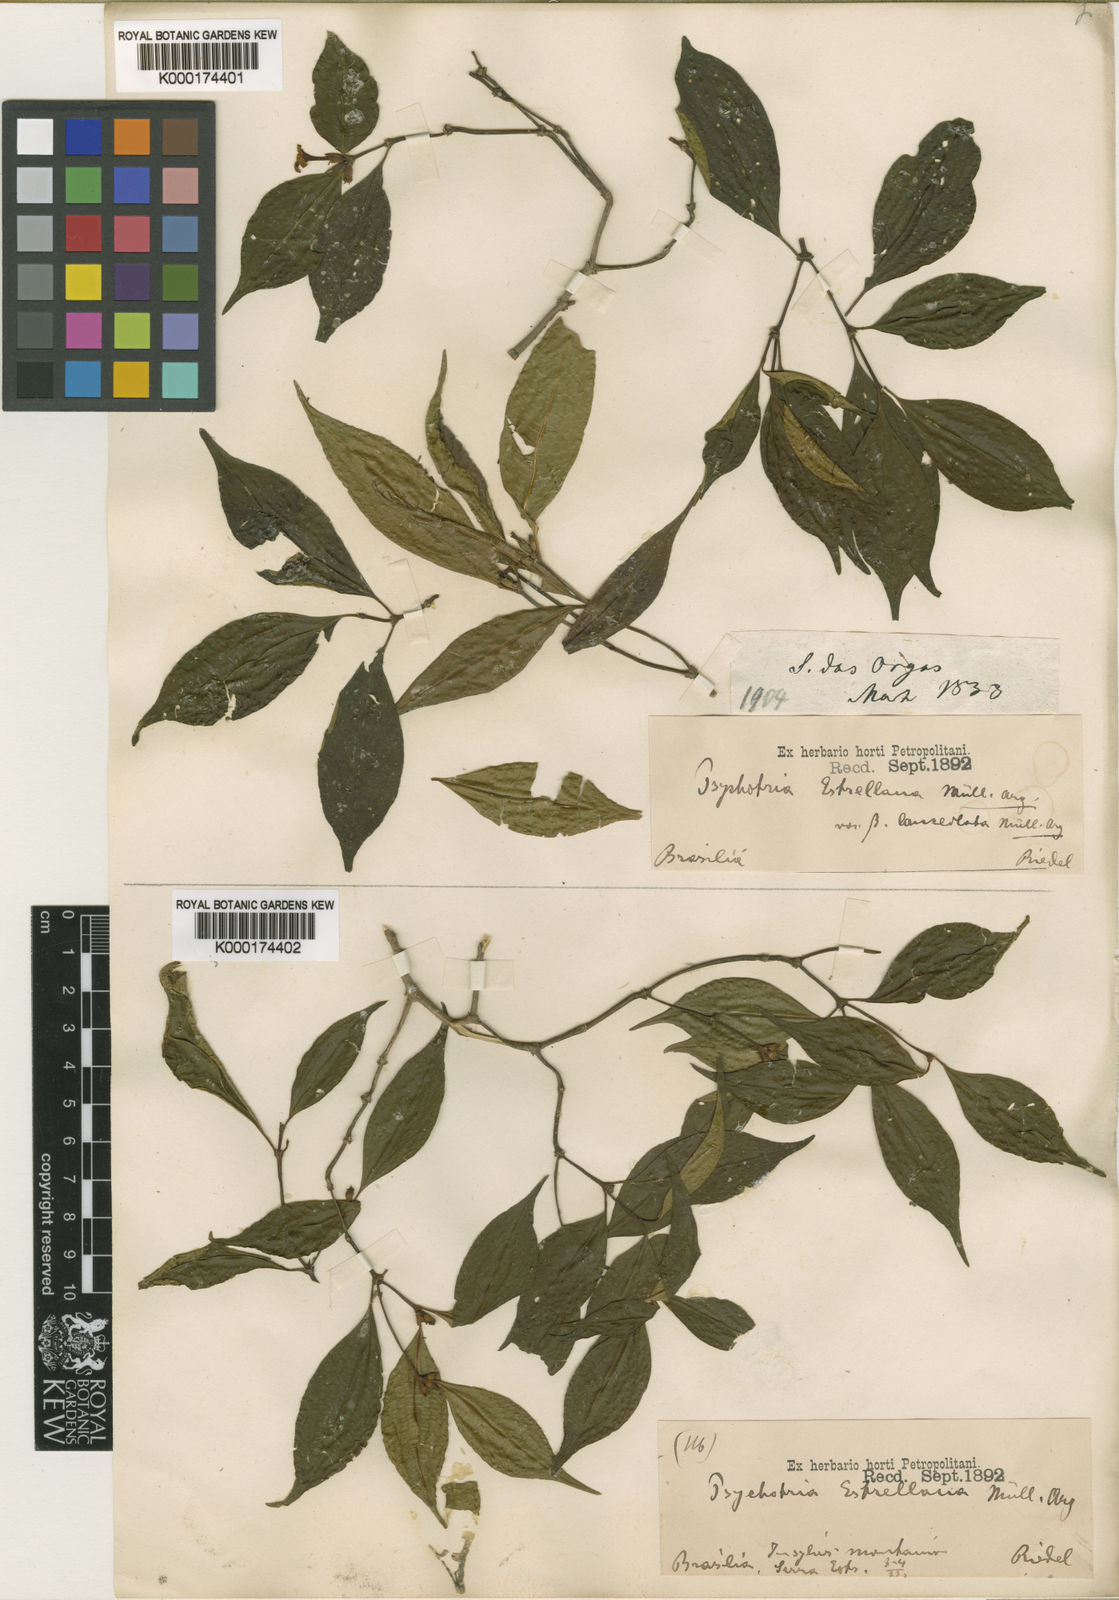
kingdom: Plantae
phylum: Tracheophyta
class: Magnoliopsida
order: Gentianales
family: Rubiaceae
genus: Psychotria
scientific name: Psychotria
